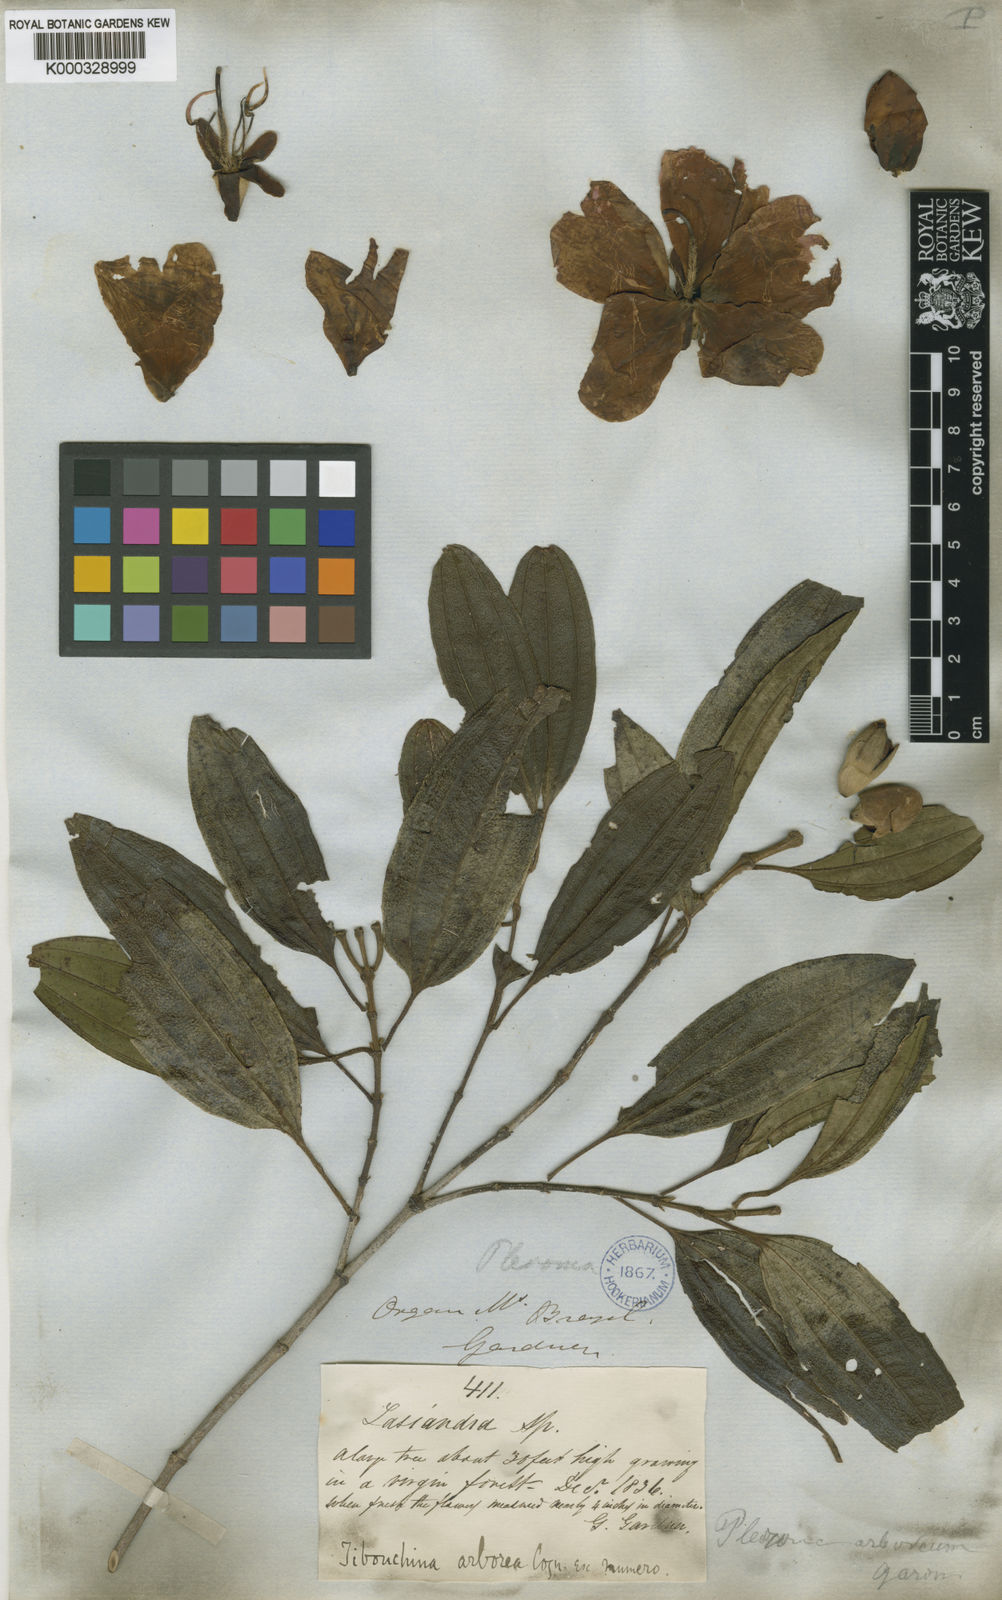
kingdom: Plantae
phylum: Tracheophyta
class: Magnoliopsida
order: Myrtales
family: Melastomataceae
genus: Pleroma
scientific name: Pleroma arboreum
